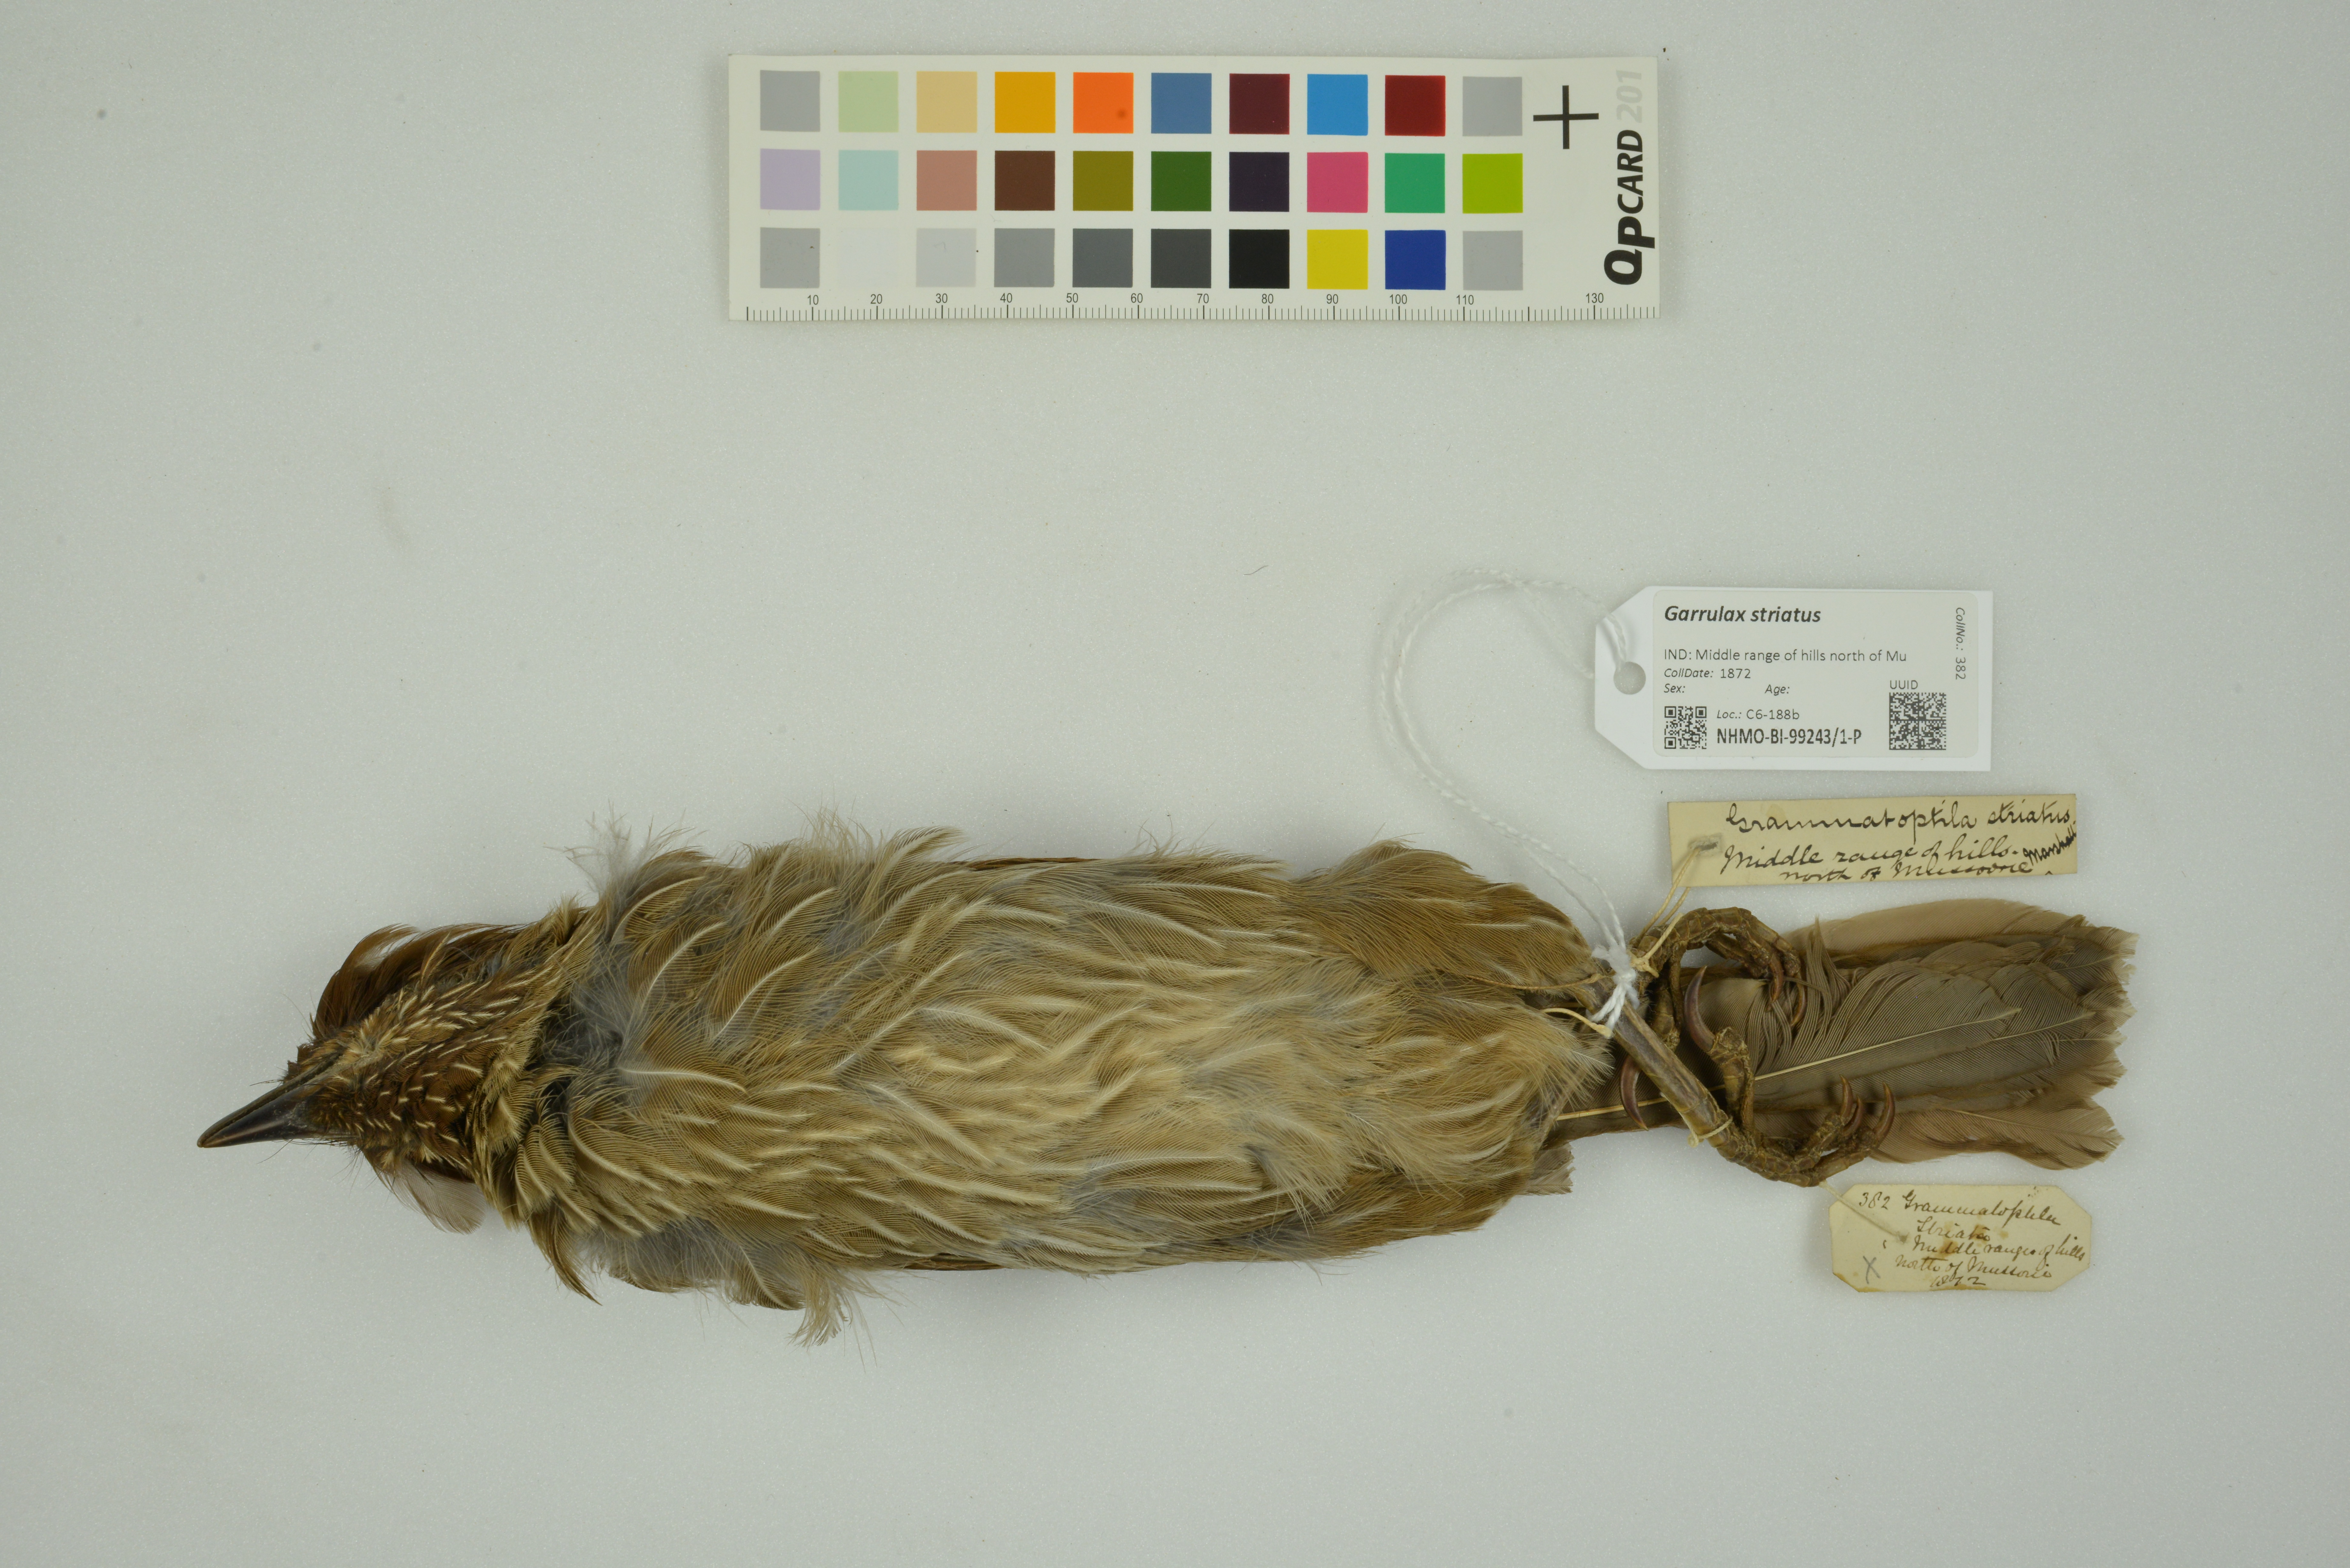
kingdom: Animalia
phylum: Chordata
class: Aves
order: Passeriformes
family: Leiothrichidae
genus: Garrulax
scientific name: Garrulax striatus
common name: Striated laughingthrush
